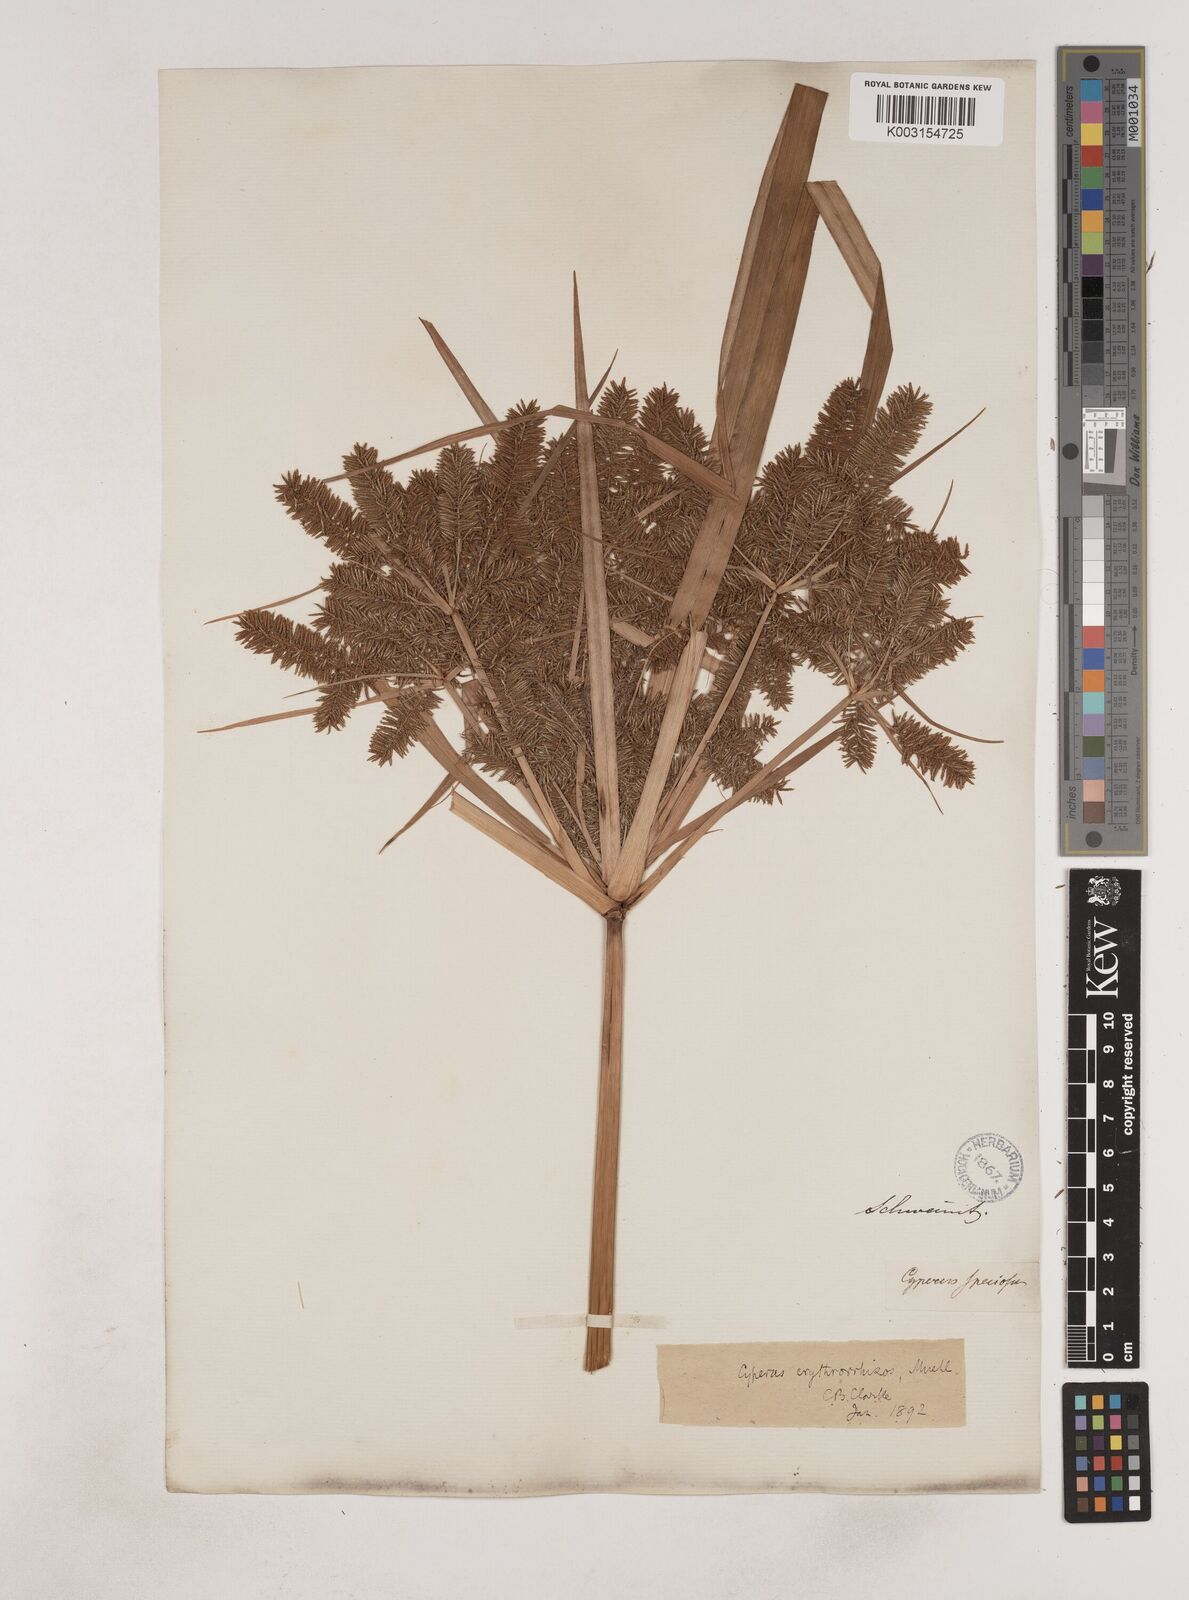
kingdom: Plantae
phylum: Tracheophyta
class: Liliopsida
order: Poales
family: Cyperaceae
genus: Cyperus
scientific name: Cyperus erythrorhizos
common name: Red-root flat sedge
